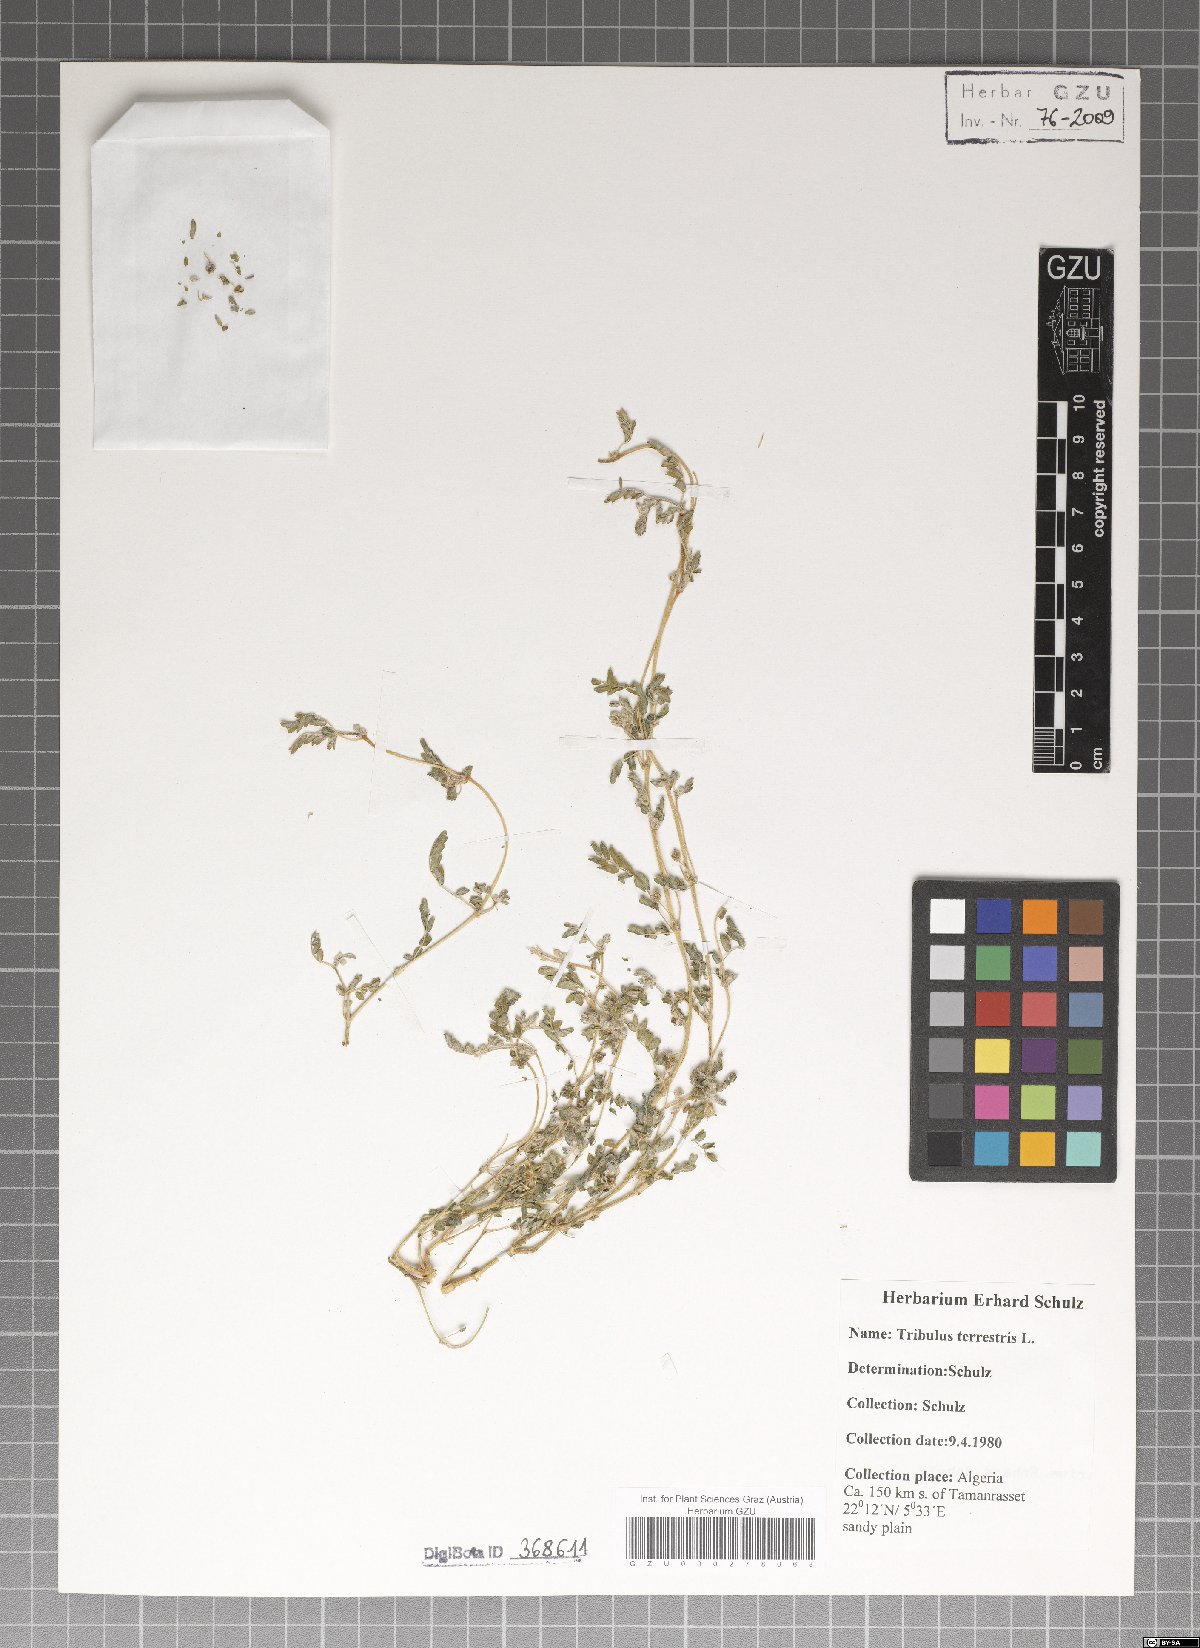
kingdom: Plantae
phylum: Tracheophyta
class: Magnoliopsida
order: Zygophyllales
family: Zygophyllaceae
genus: Tribulus
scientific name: Tribulus terrestris
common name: Puncturevine
